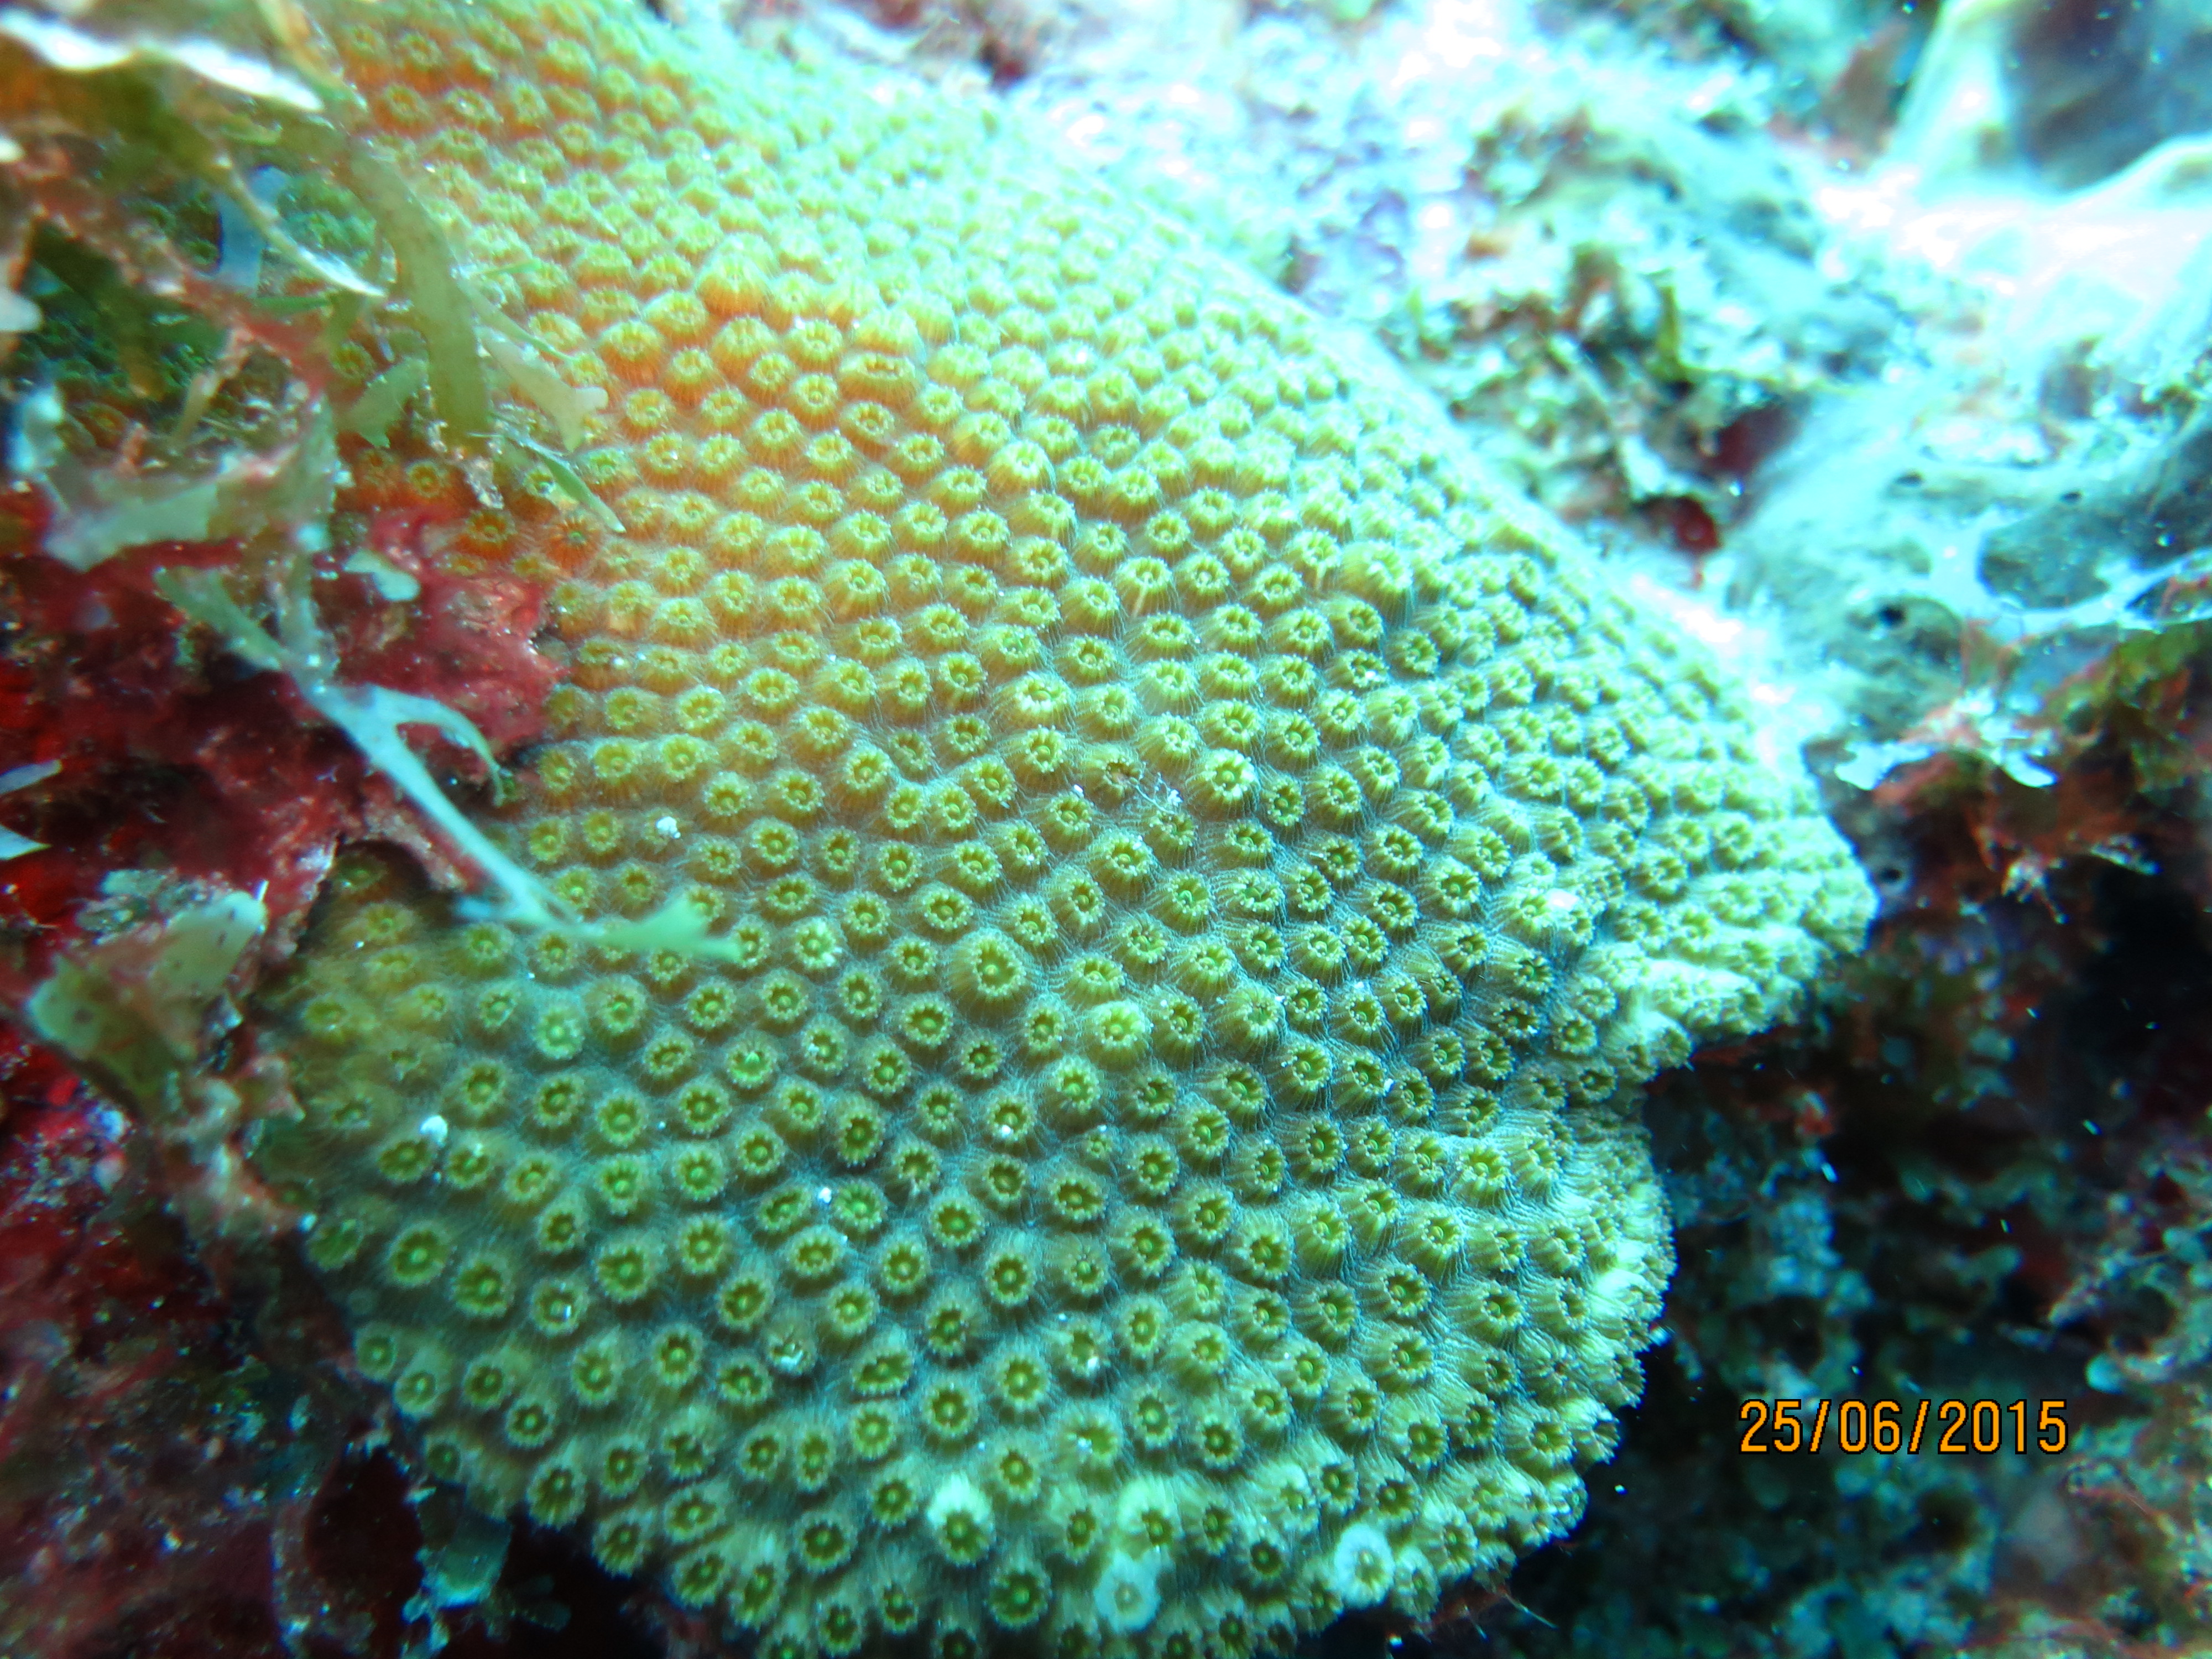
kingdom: Animalia
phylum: Cnidaria
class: Anthozoa
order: Scleractinia
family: Merulinidae
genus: Orbicella
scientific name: Orbicella franksi
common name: Bumpy star coral
